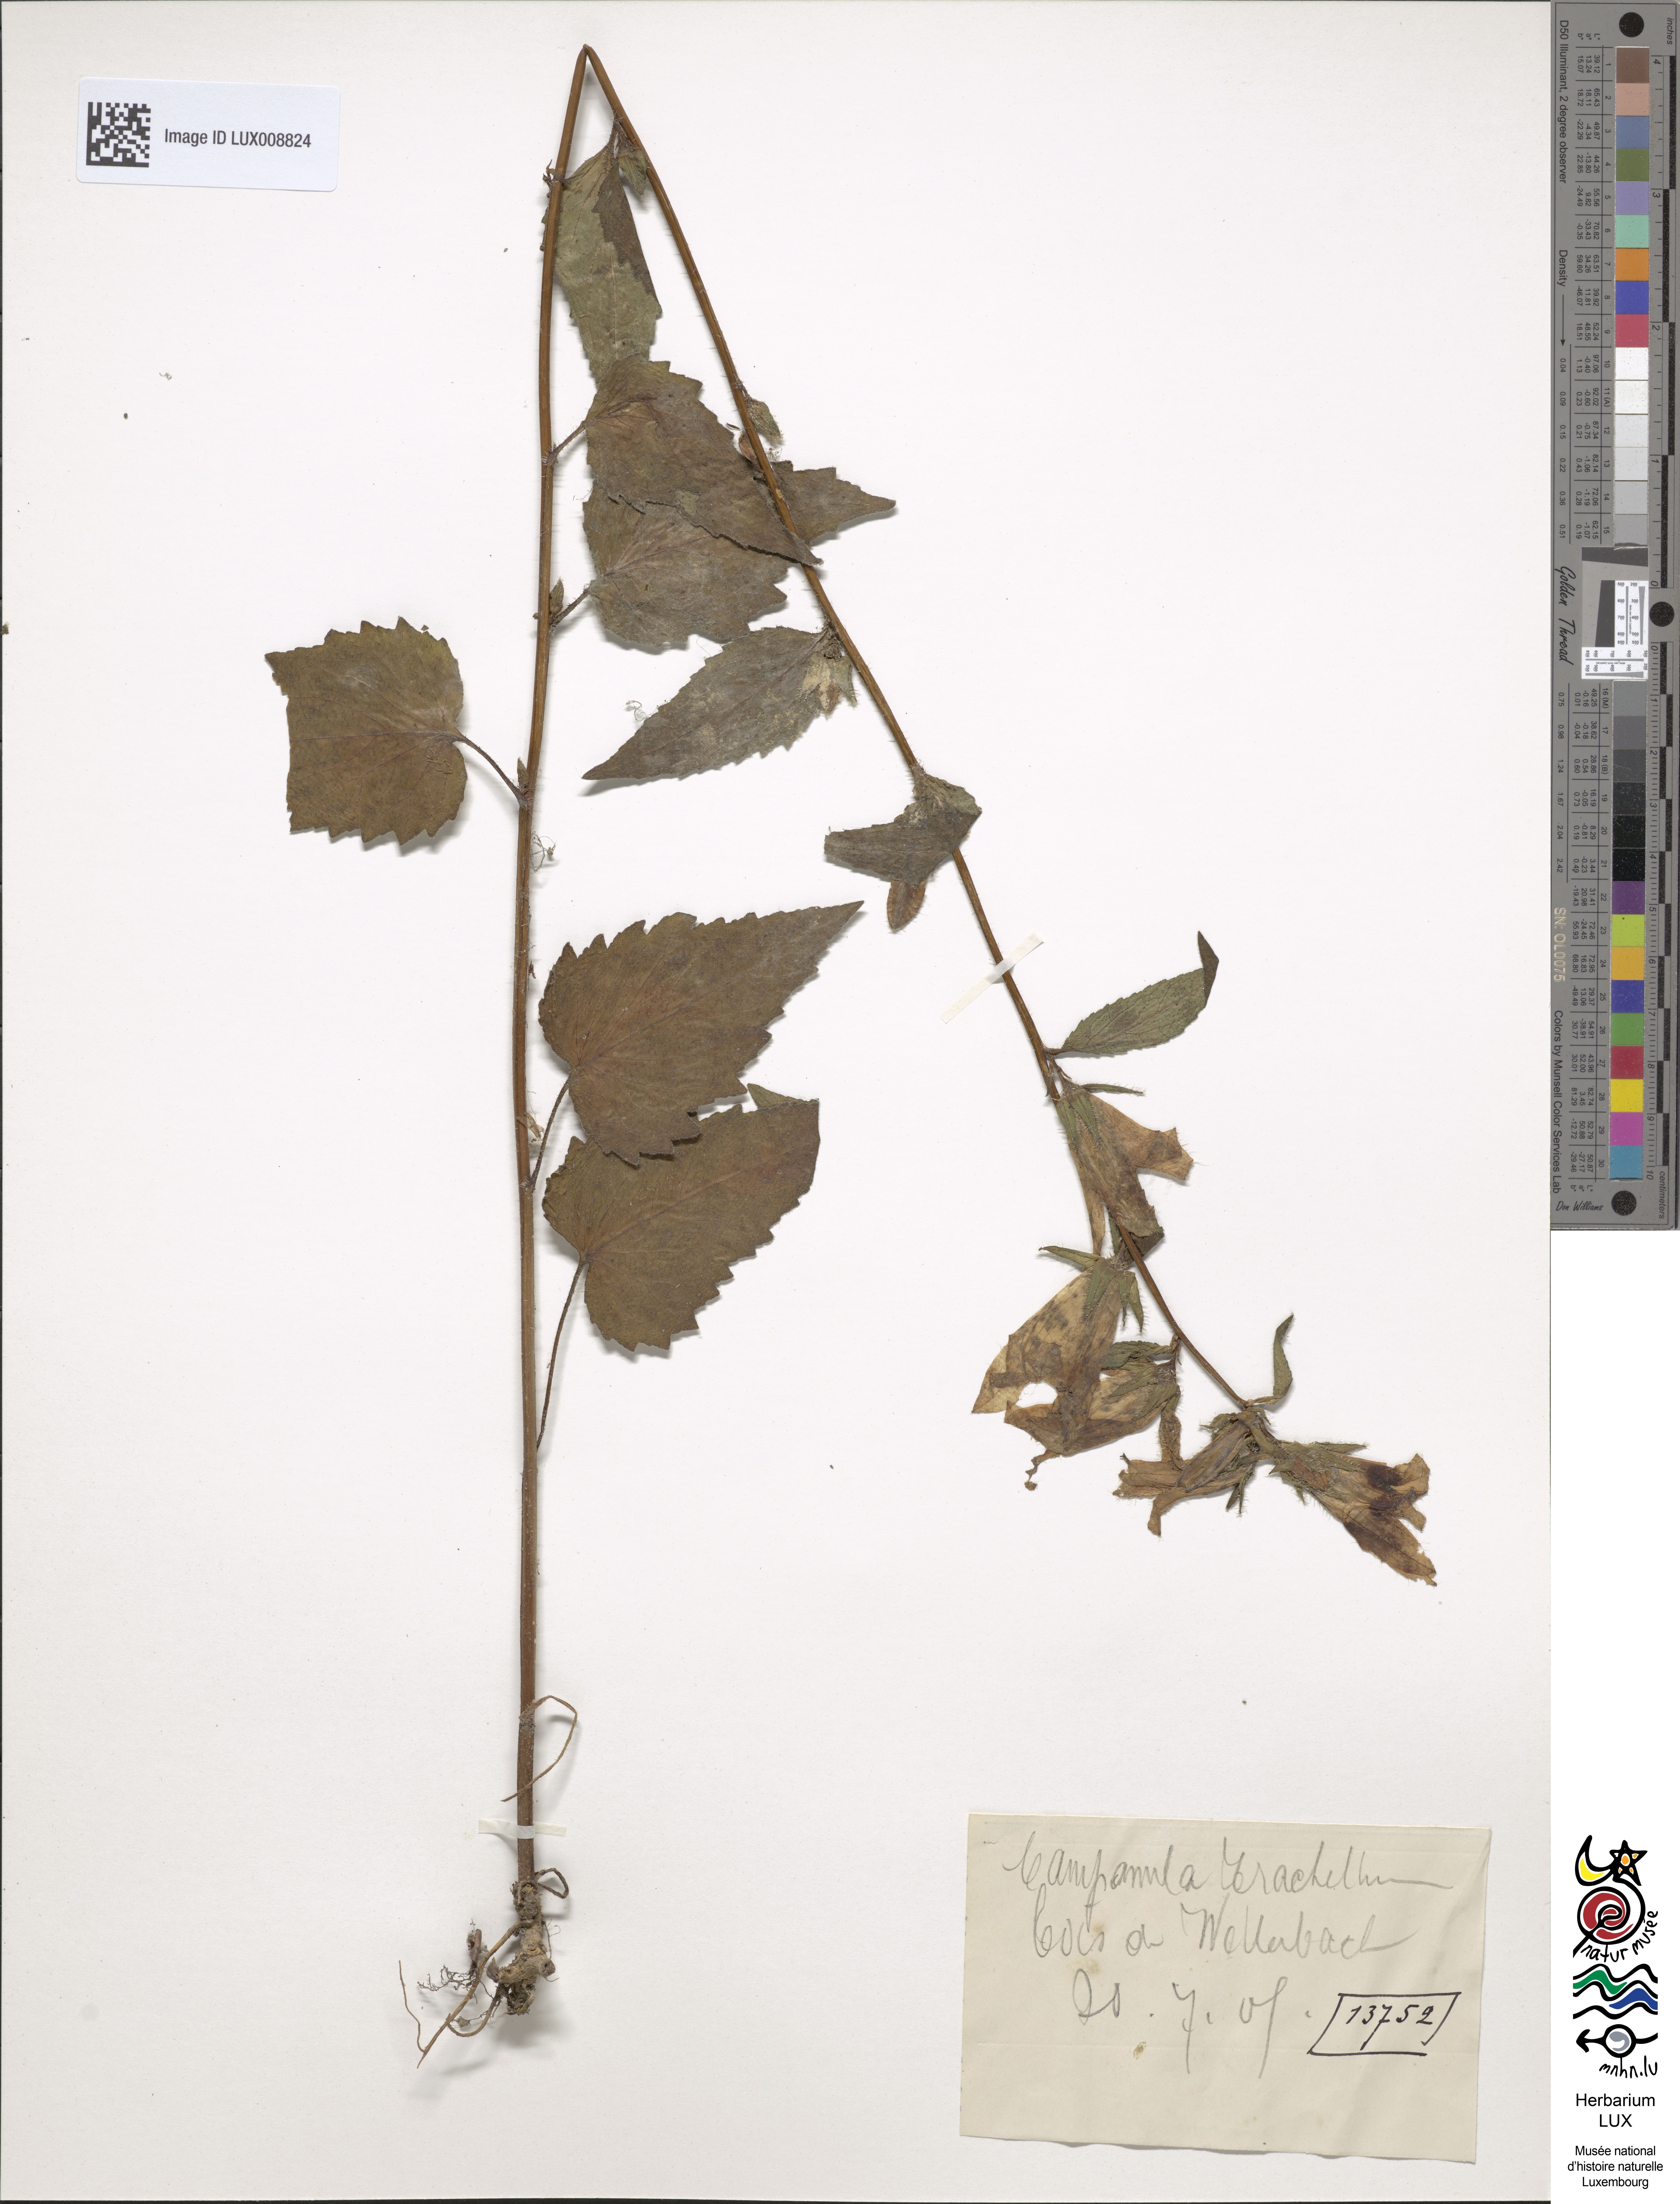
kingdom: Plantae
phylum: Tracheophyta
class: Magnoliopsida
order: Asterales
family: Campanulaceae
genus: Campanula
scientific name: Campanula trachelium
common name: Nettle-leaved bellflower
